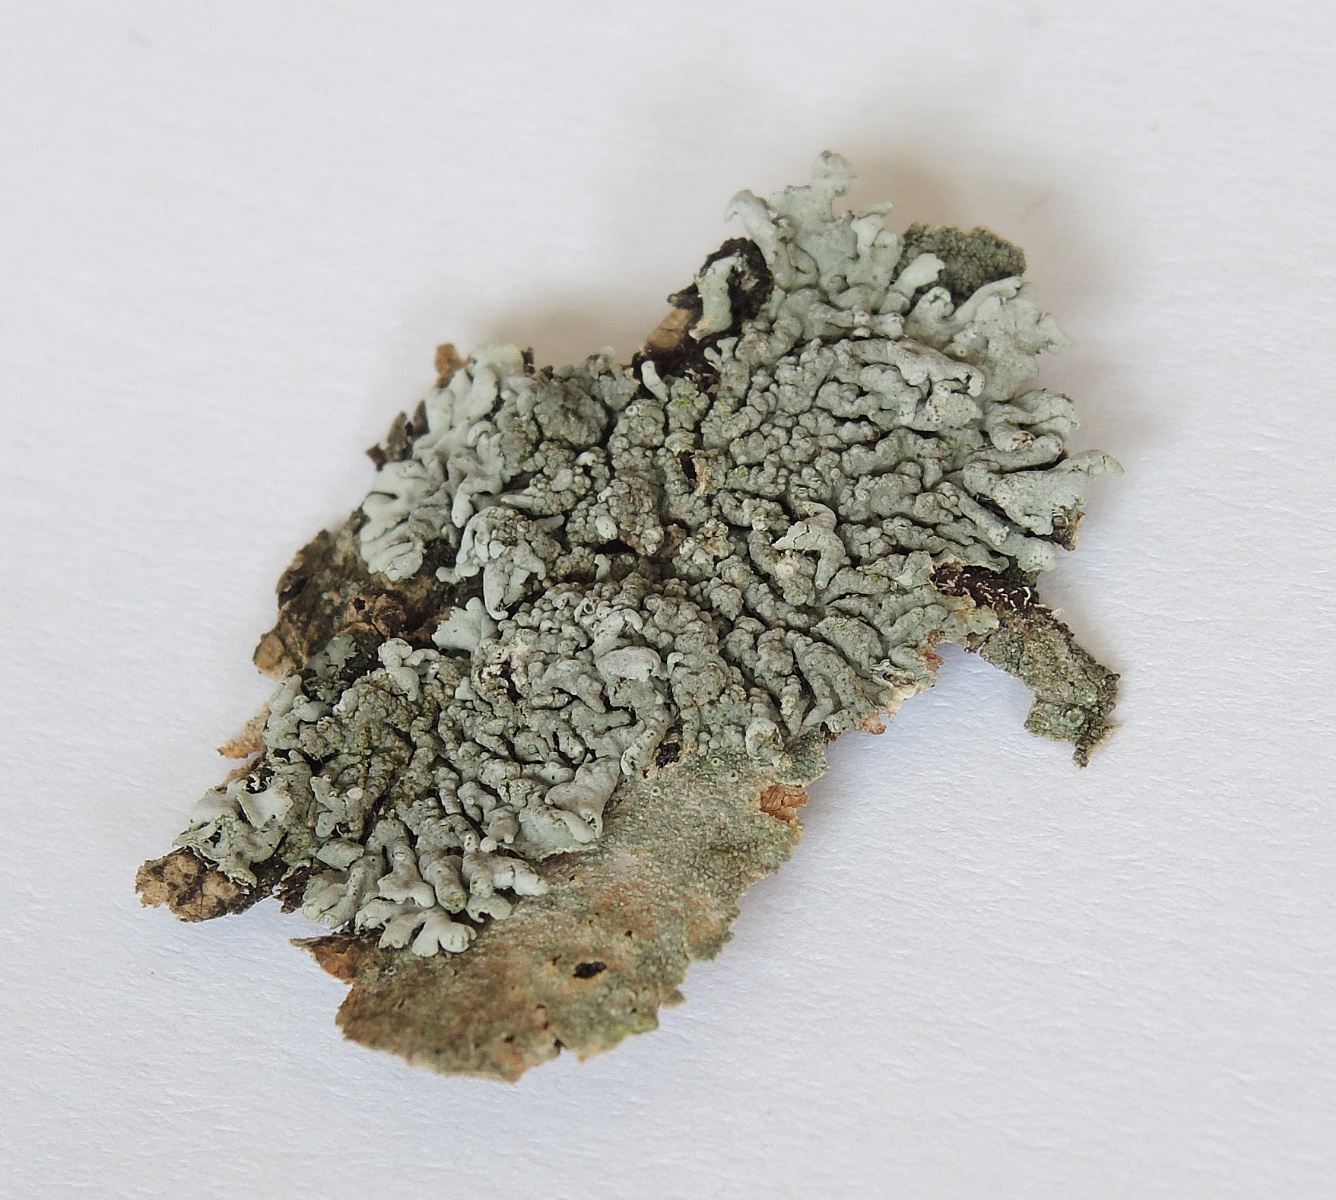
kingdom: Fungi
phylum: Ascomycota
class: Lecanoromycetes
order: Caliciales
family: Physciaceae
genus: Physcia
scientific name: Physcia stellaris
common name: stjerneformet rosetlav
